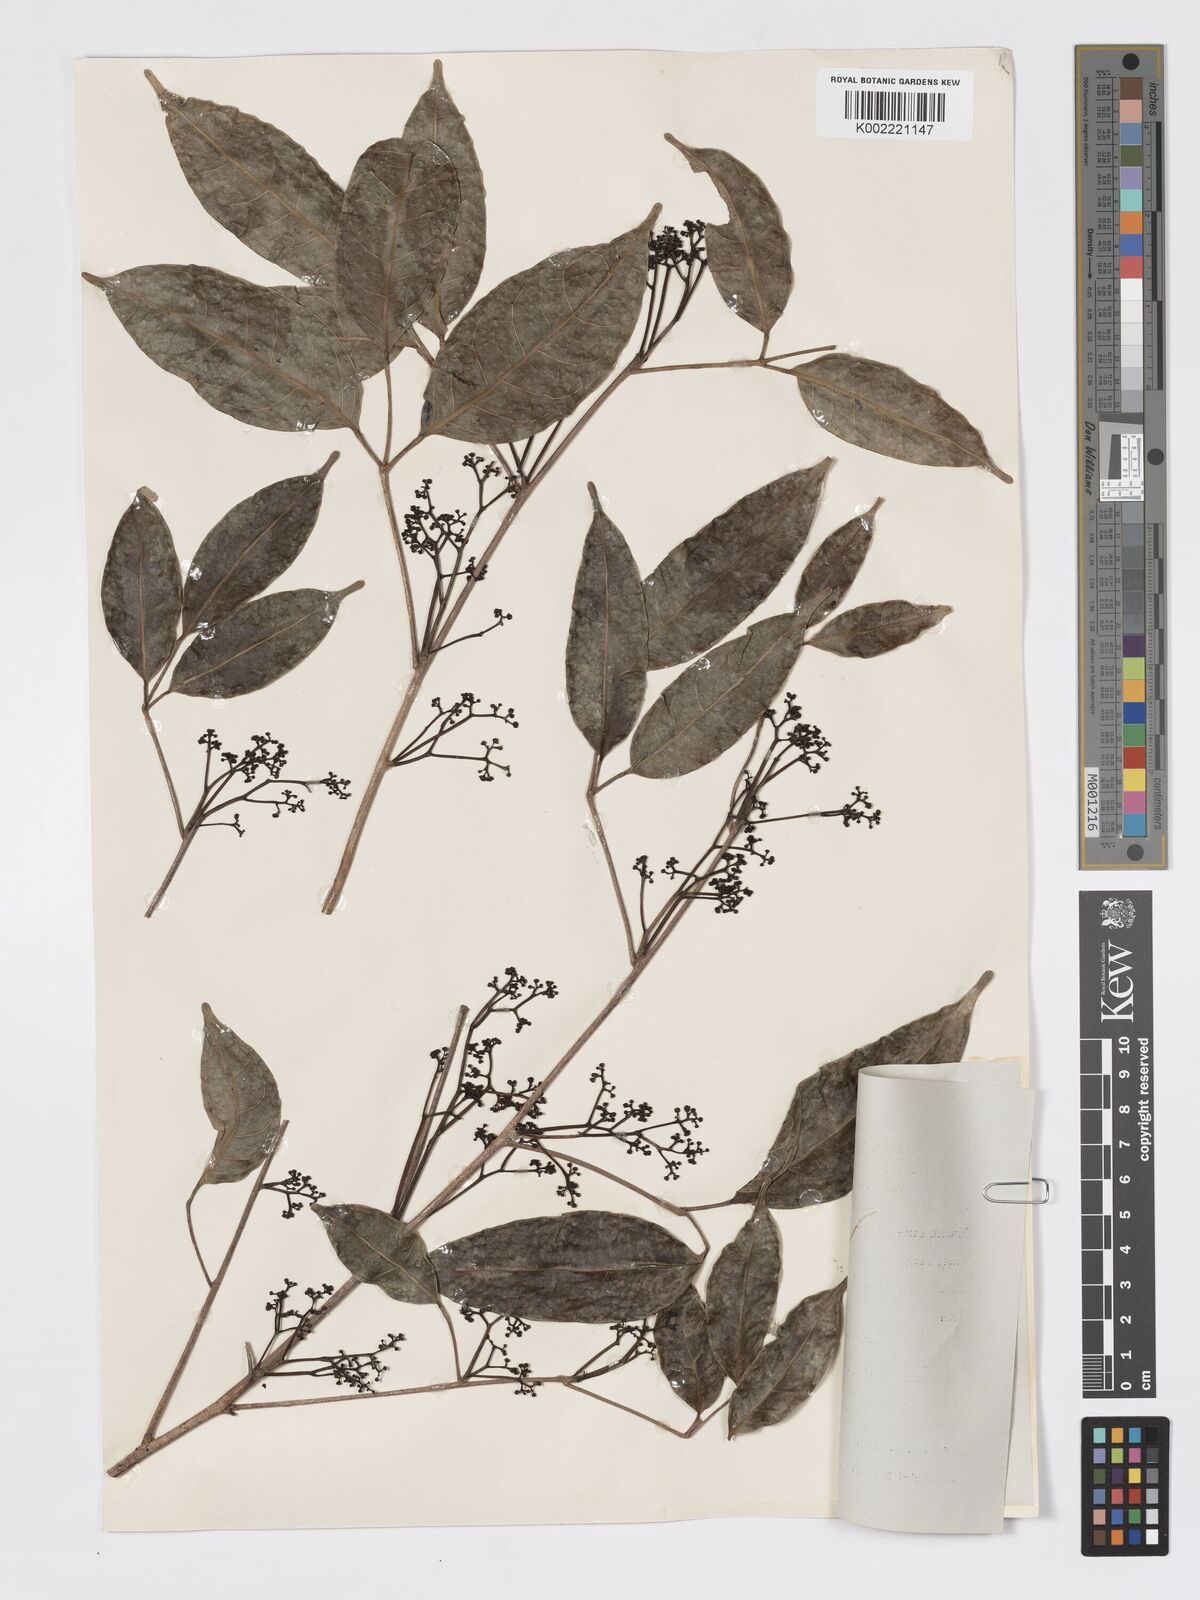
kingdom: Plantae
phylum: Tracheophyta
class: Magnoliopsida
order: Sapindales
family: Burseraceae
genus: Santiria
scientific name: Santiria apiculata
